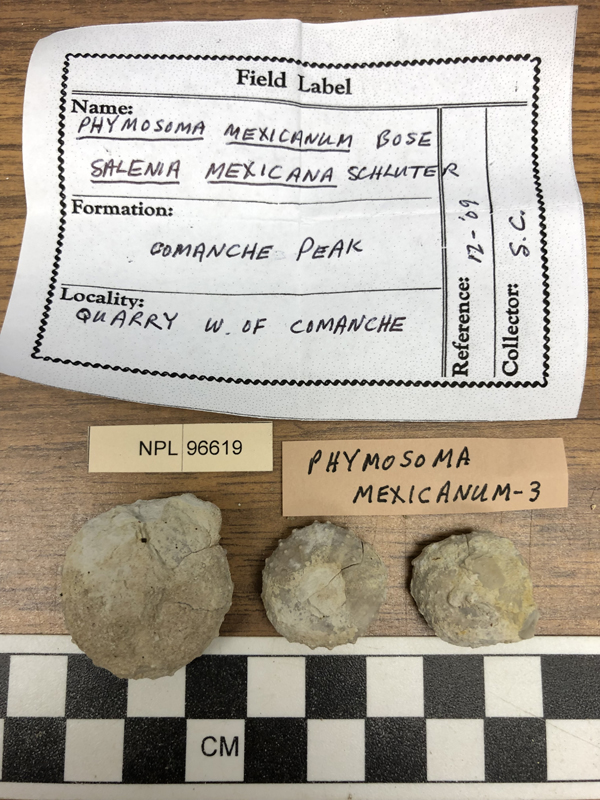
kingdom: Animalia
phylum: Echinodermata
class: Echinoidea
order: Phymosomatoida
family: Phymosomatidae
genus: Phymosoma
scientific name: Phymosoma mexicanum
